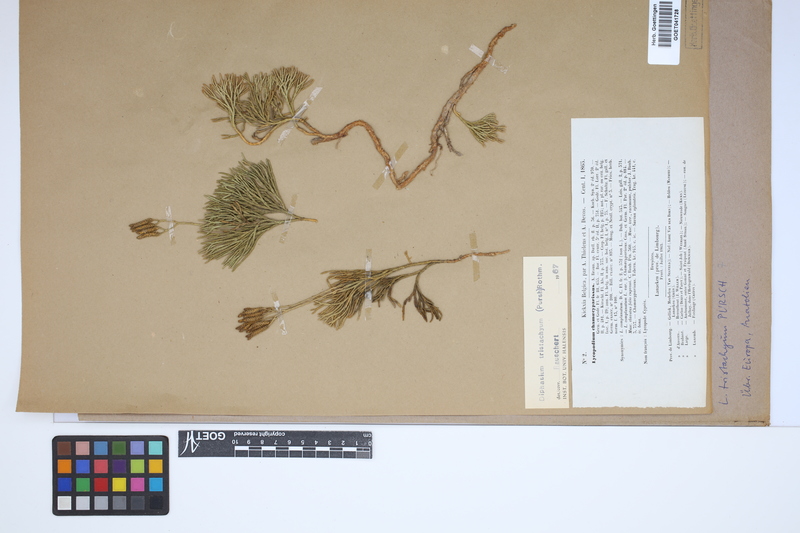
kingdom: Plantae
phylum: Tracheophyta
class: Lycopodiopsida
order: Lycopodiales
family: Lycopodiaceae
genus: Diphasiastrum
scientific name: Diphasiastrum tristachyum
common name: Blue ground-cedar
